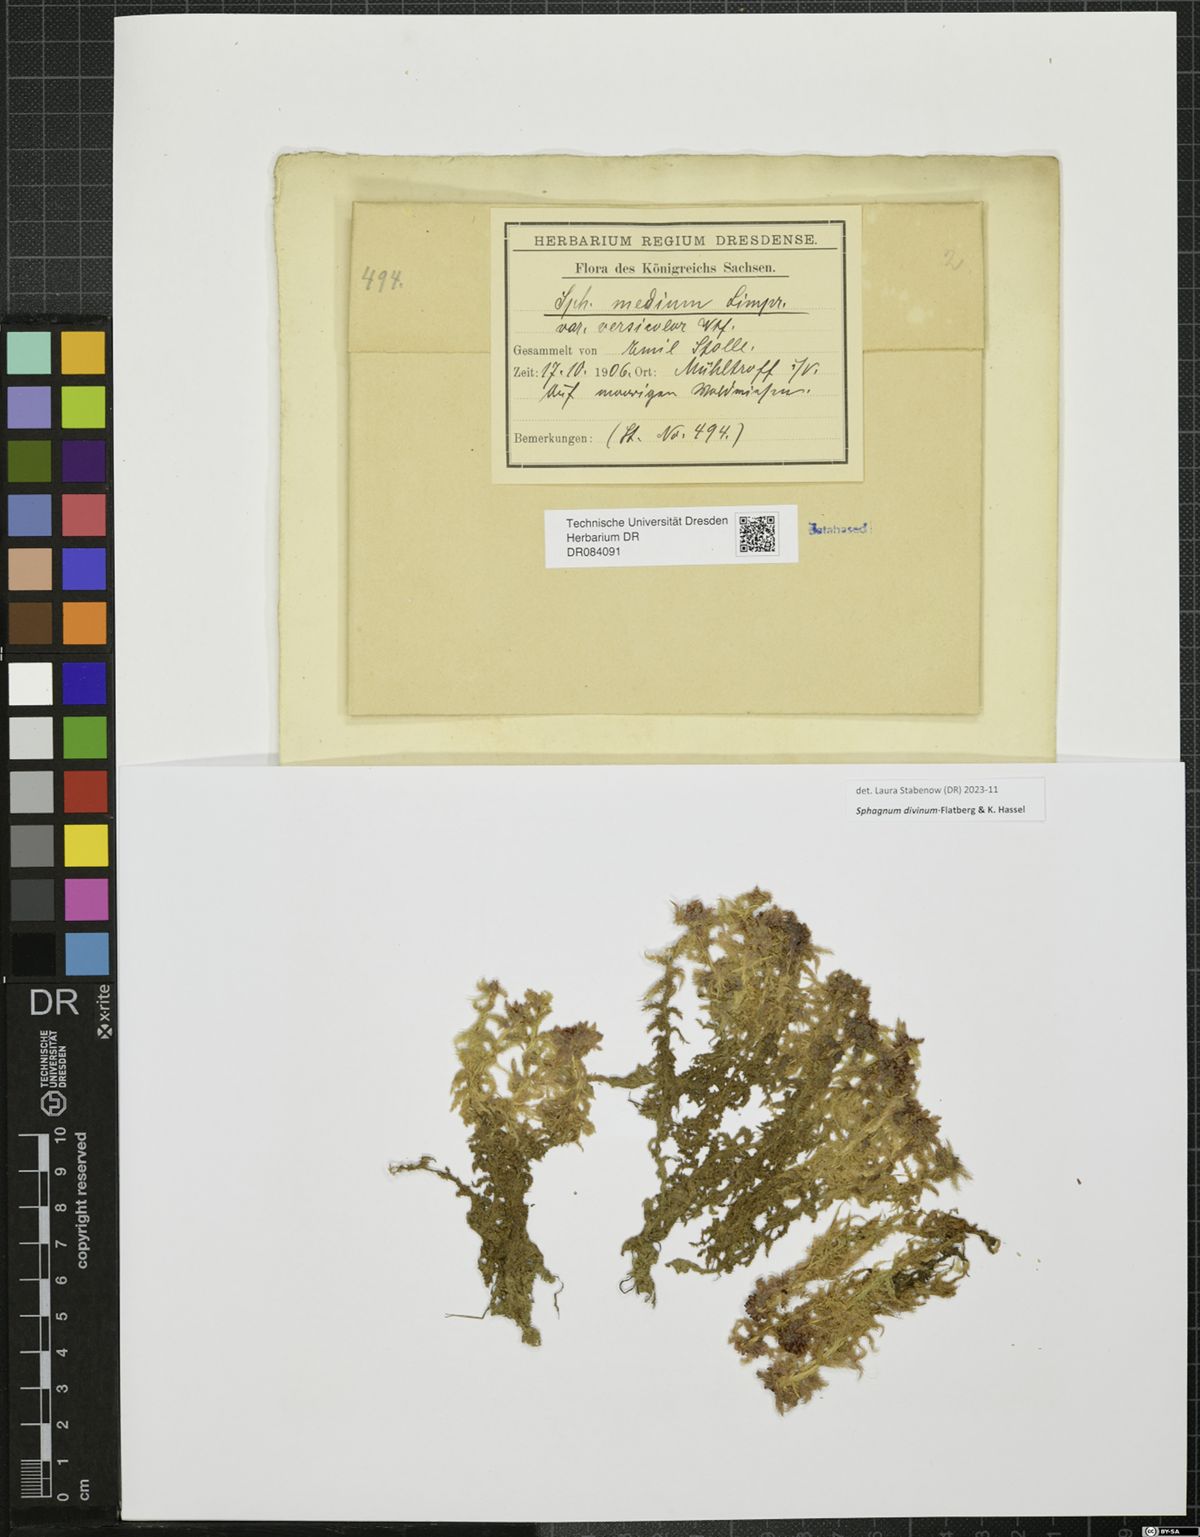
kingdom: Plantae
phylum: Bryophyta
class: Sphagnopsida
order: Sphagnales
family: Sphagnaceae
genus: Sphagnum
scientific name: Sphagnum divinum
